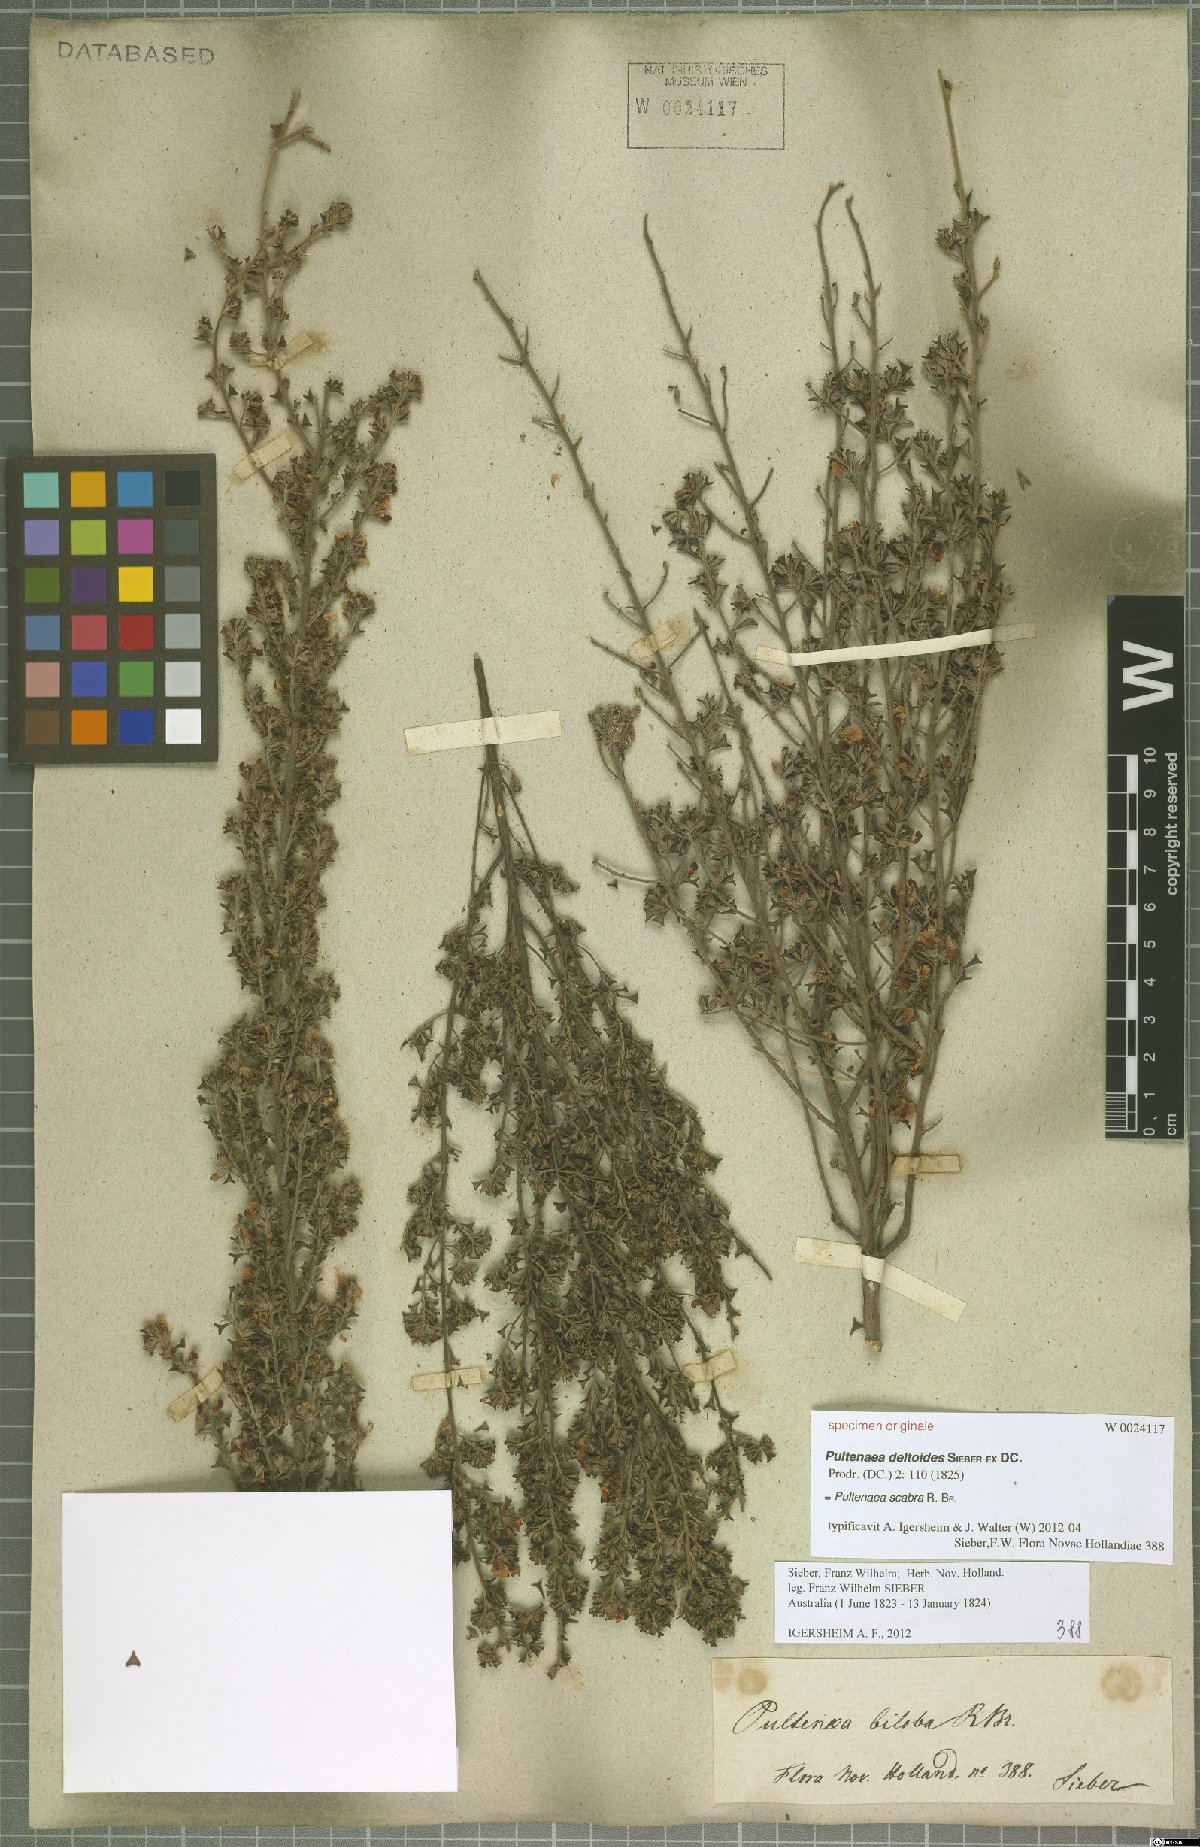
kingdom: Plantae
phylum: Tracheophyta
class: Magnoliopsida
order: Fabales
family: Fabaceae
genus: Pultenaea
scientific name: Pultenaea scabra
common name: Rough bush-pea
